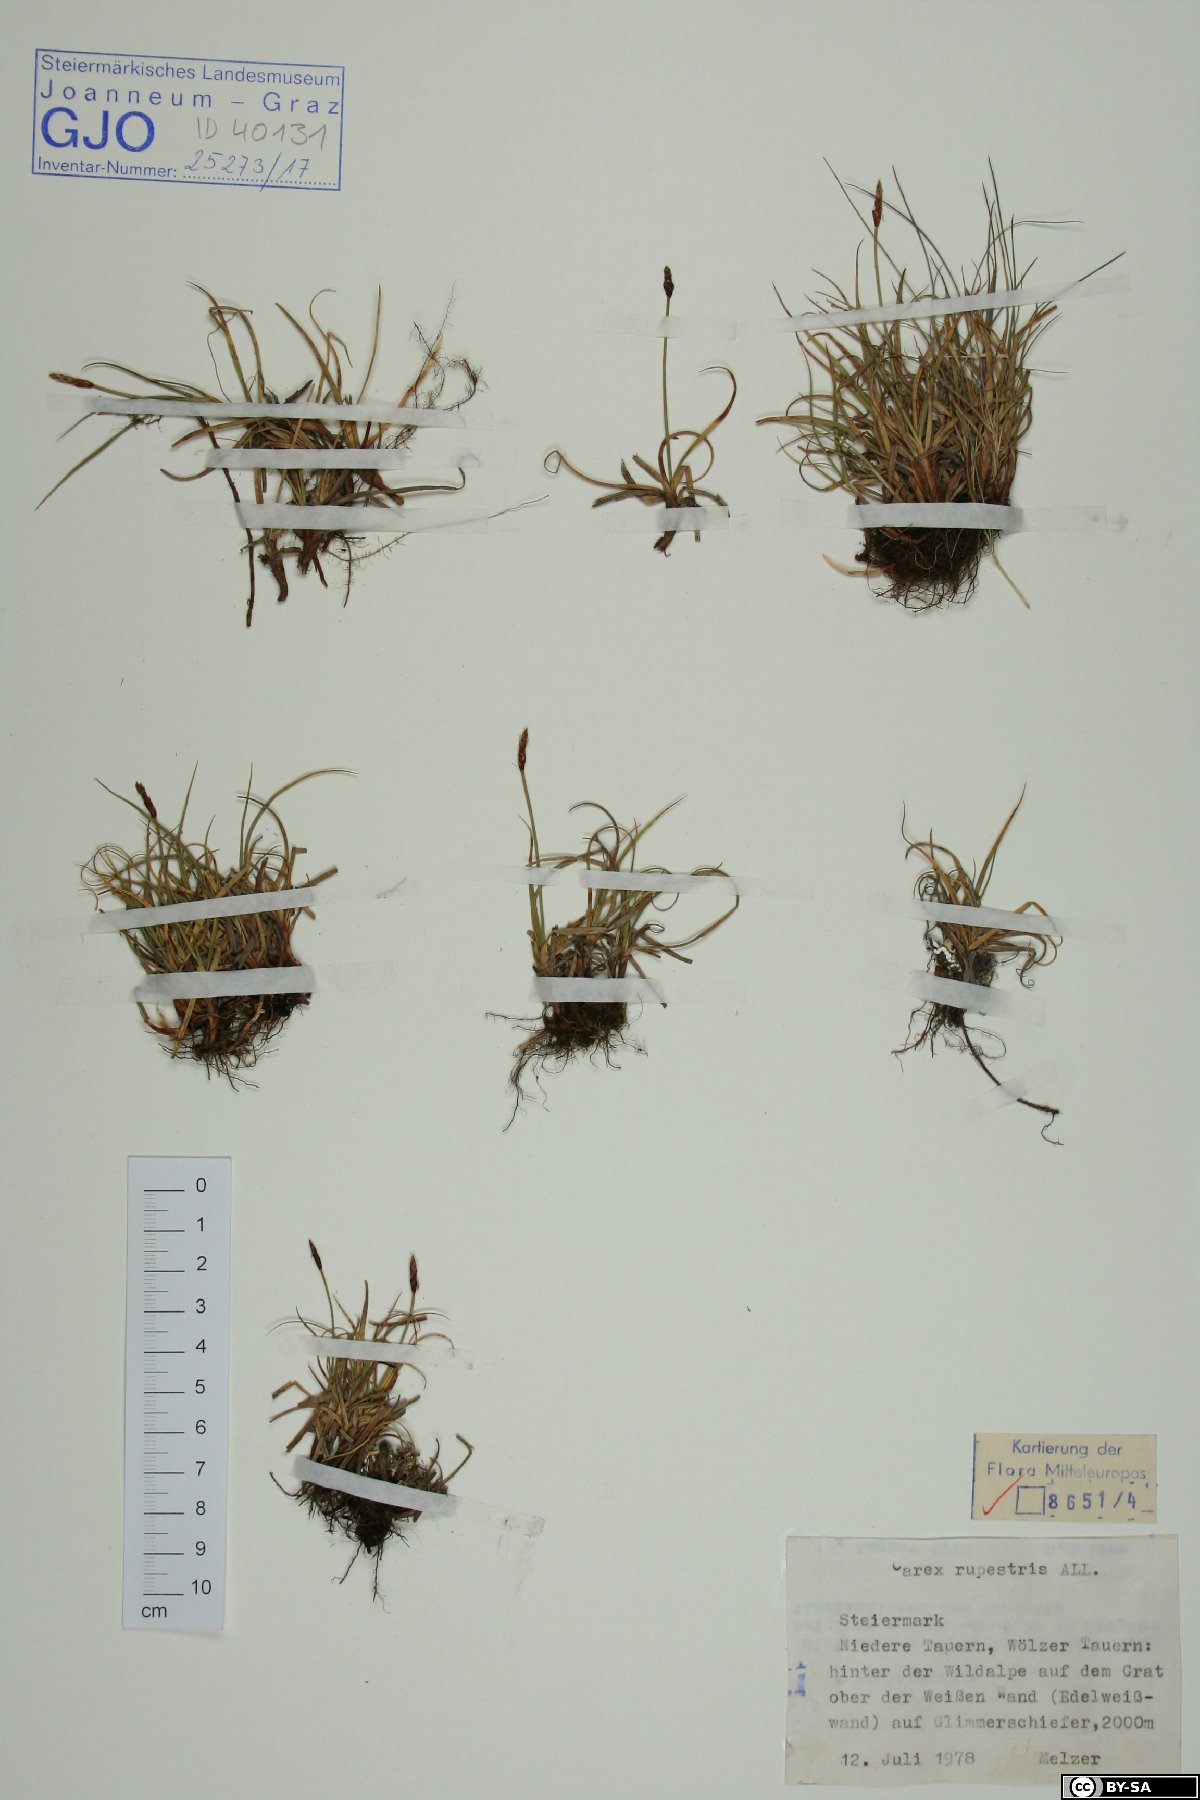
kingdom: Plantae
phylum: Tracheophyta
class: Liliopsida
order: Poales
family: Cyperaceae
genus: Carex
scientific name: Carex rupestris
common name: Rock sedge
